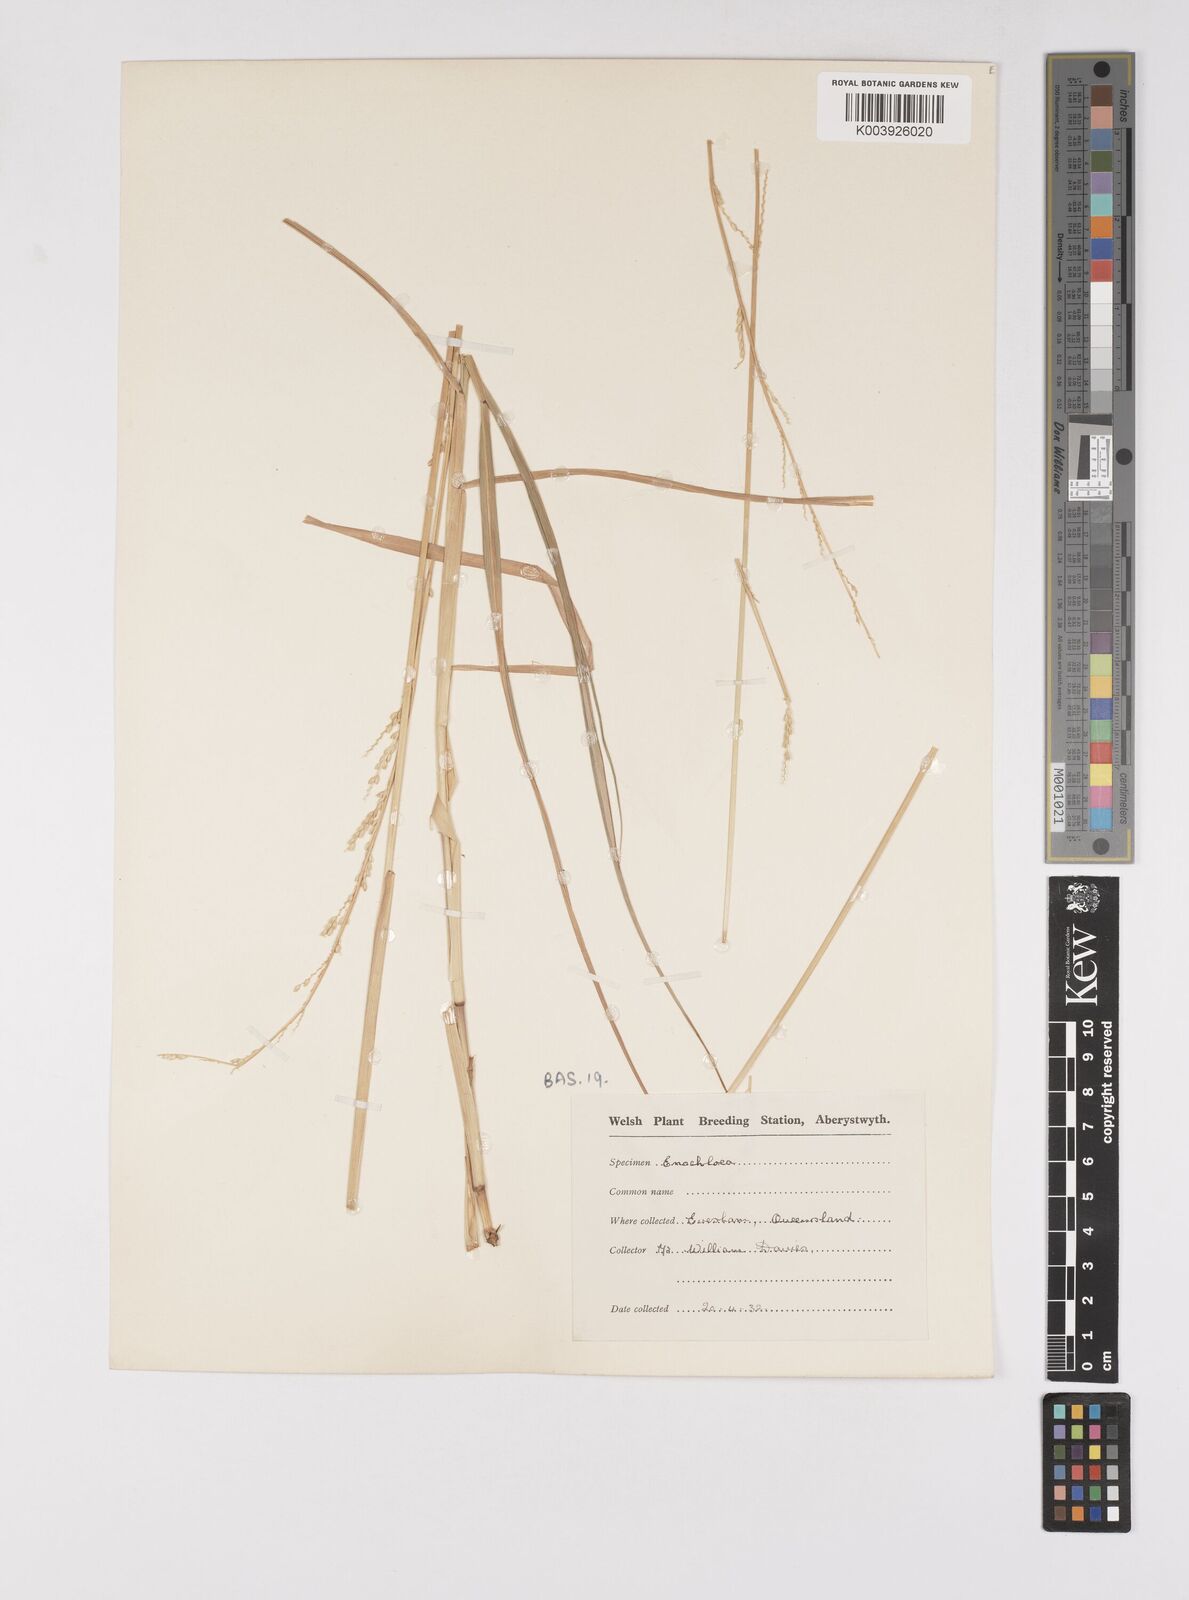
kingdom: Plantae
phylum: Tracheophyta
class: Liliopsida
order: Poales
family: Poaceae
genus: Eriochloa
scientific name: Eriochloa
